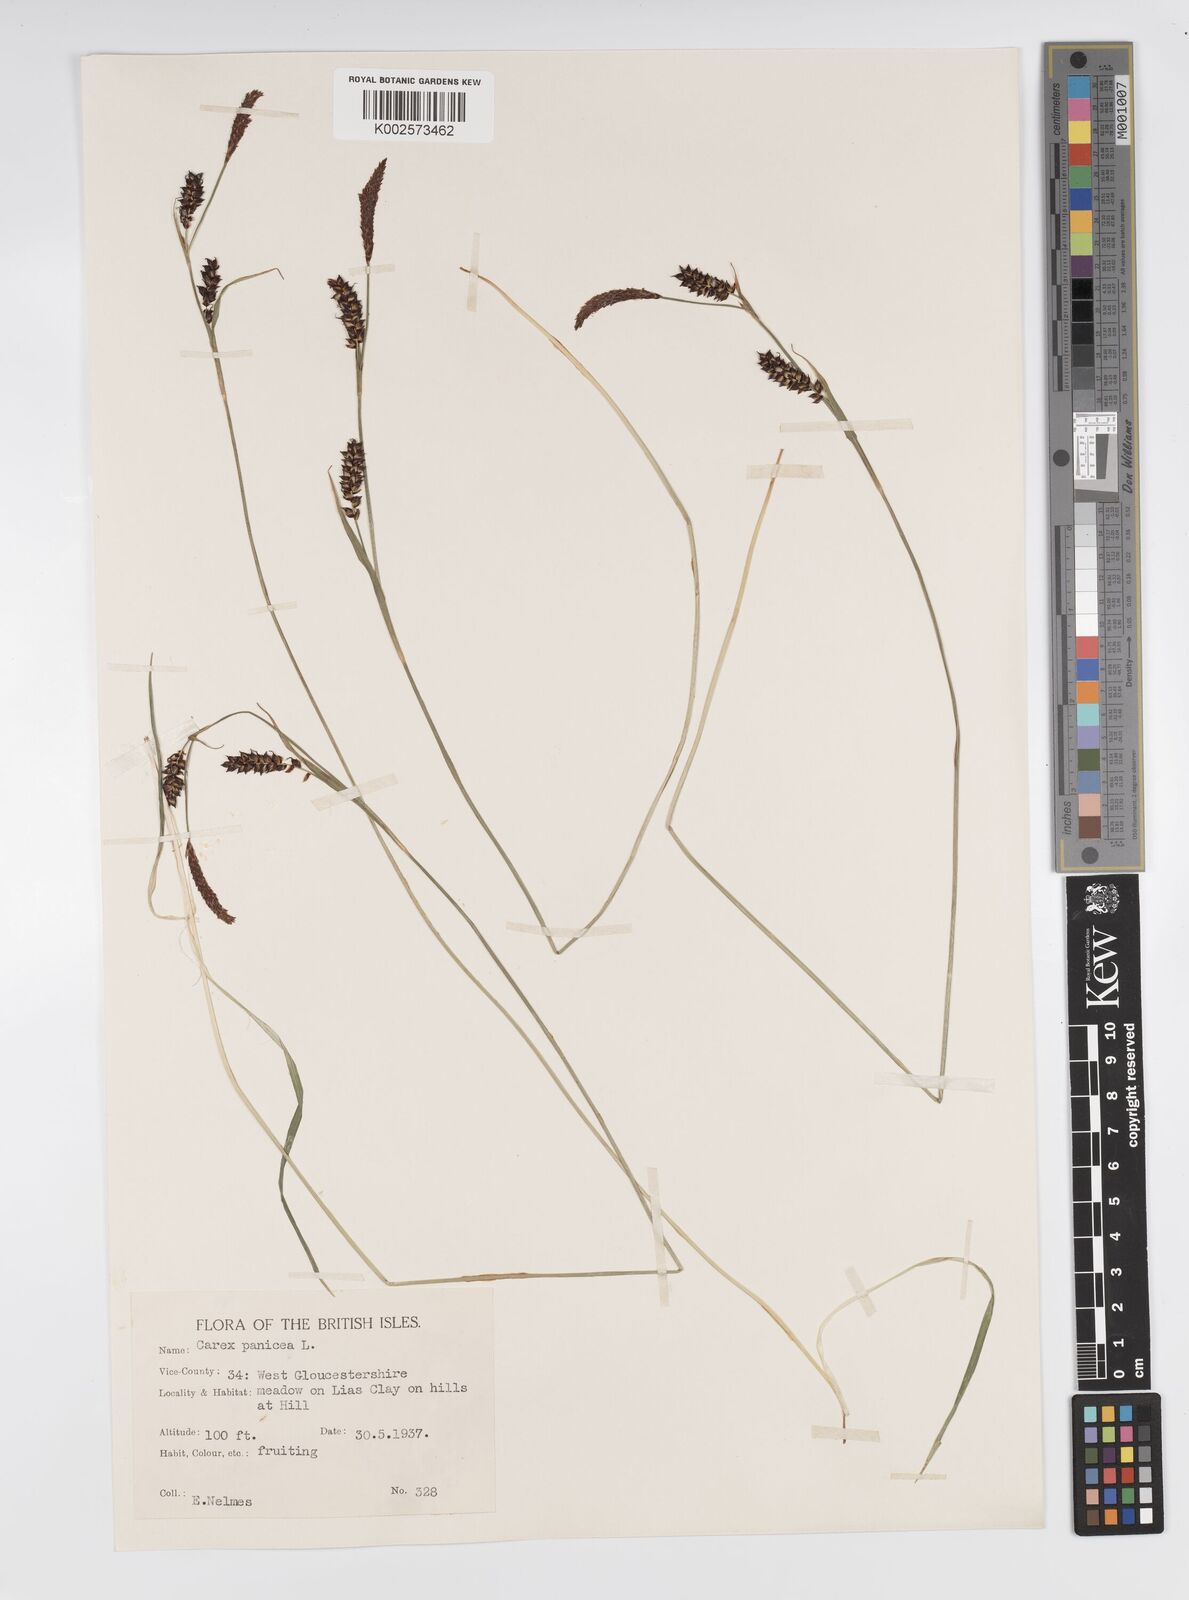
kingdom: Plantae
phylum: Tracheophyta
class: Liliopsida
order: Poales
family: Cyperaceae
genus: Carex
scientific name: Carex panicea
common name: Carnation sedge
